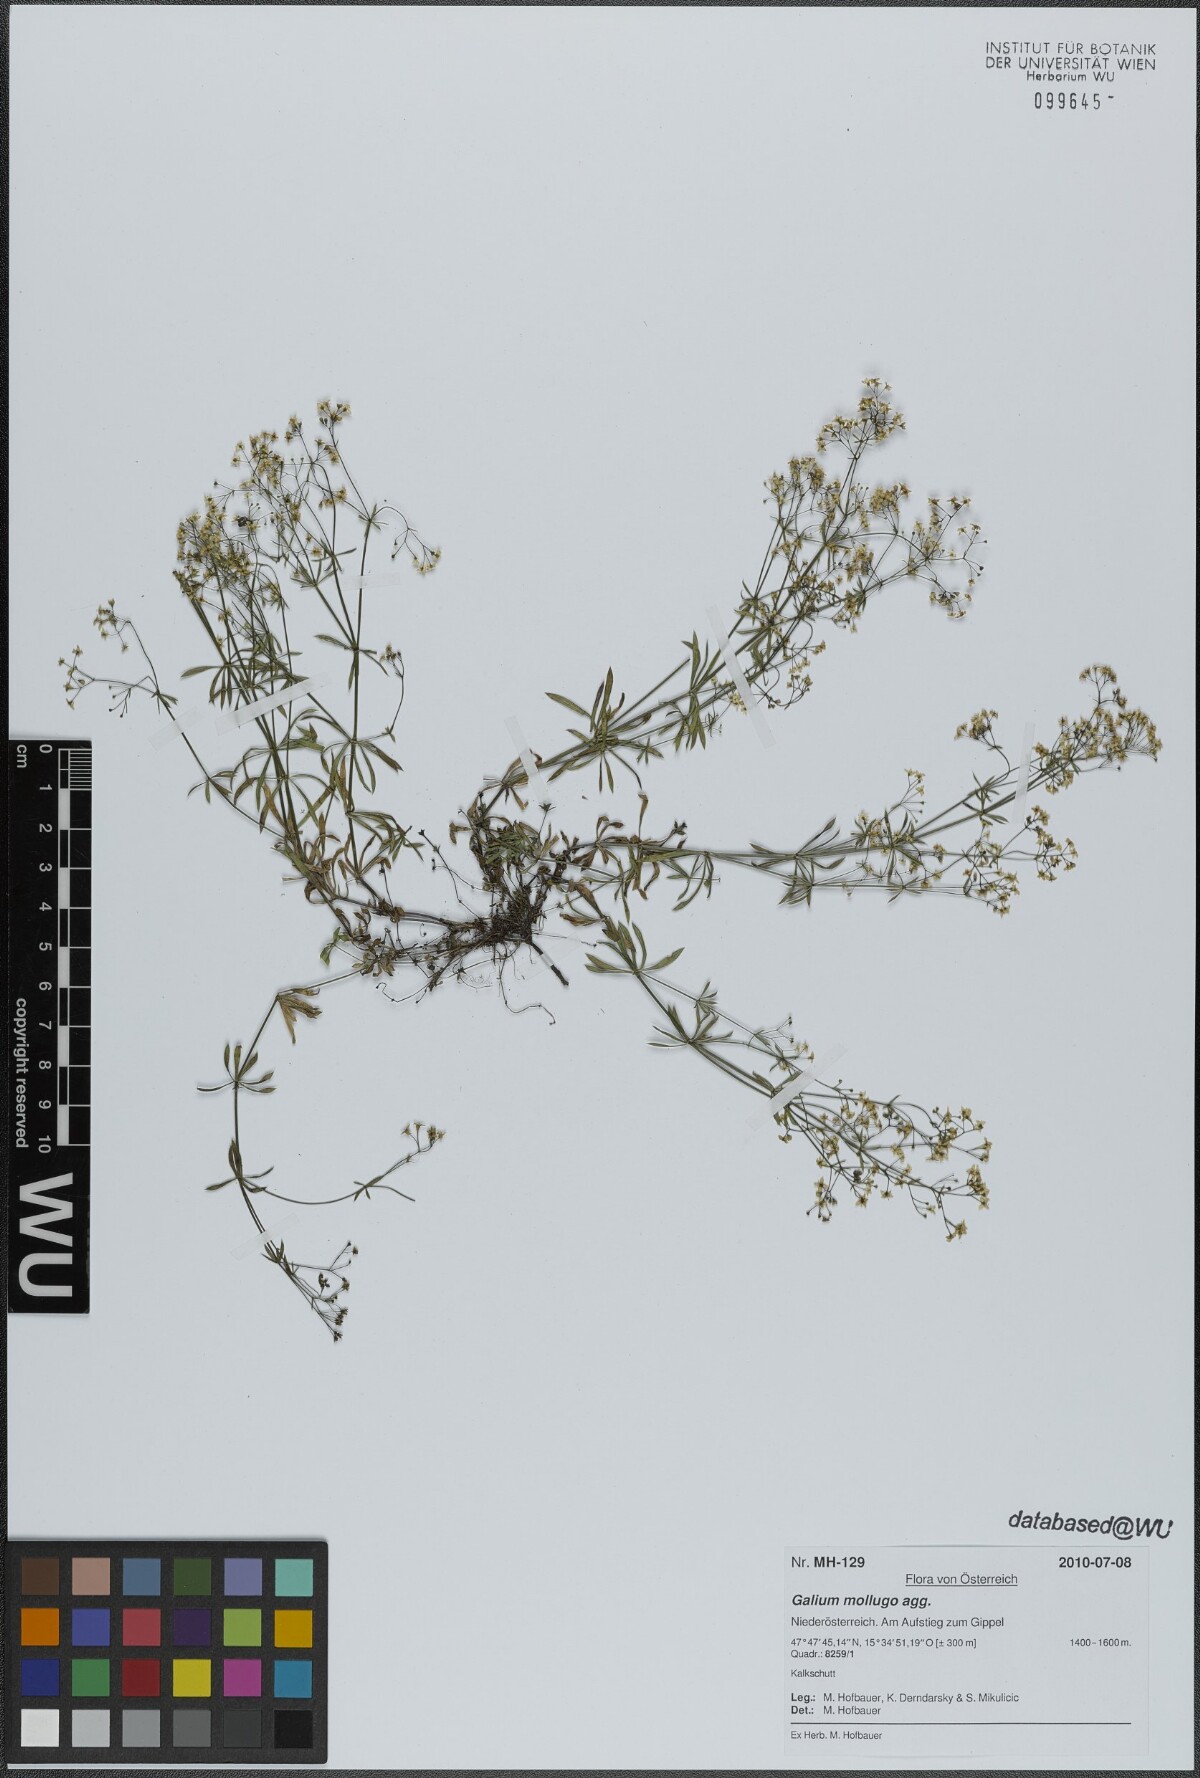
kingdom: Plantae
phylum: Tracheophyta
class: Magnoliopsida
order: Gentianales
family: Rubiaceae
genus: Galium
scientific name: Galium mollugo
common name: Hedge bedstraw
